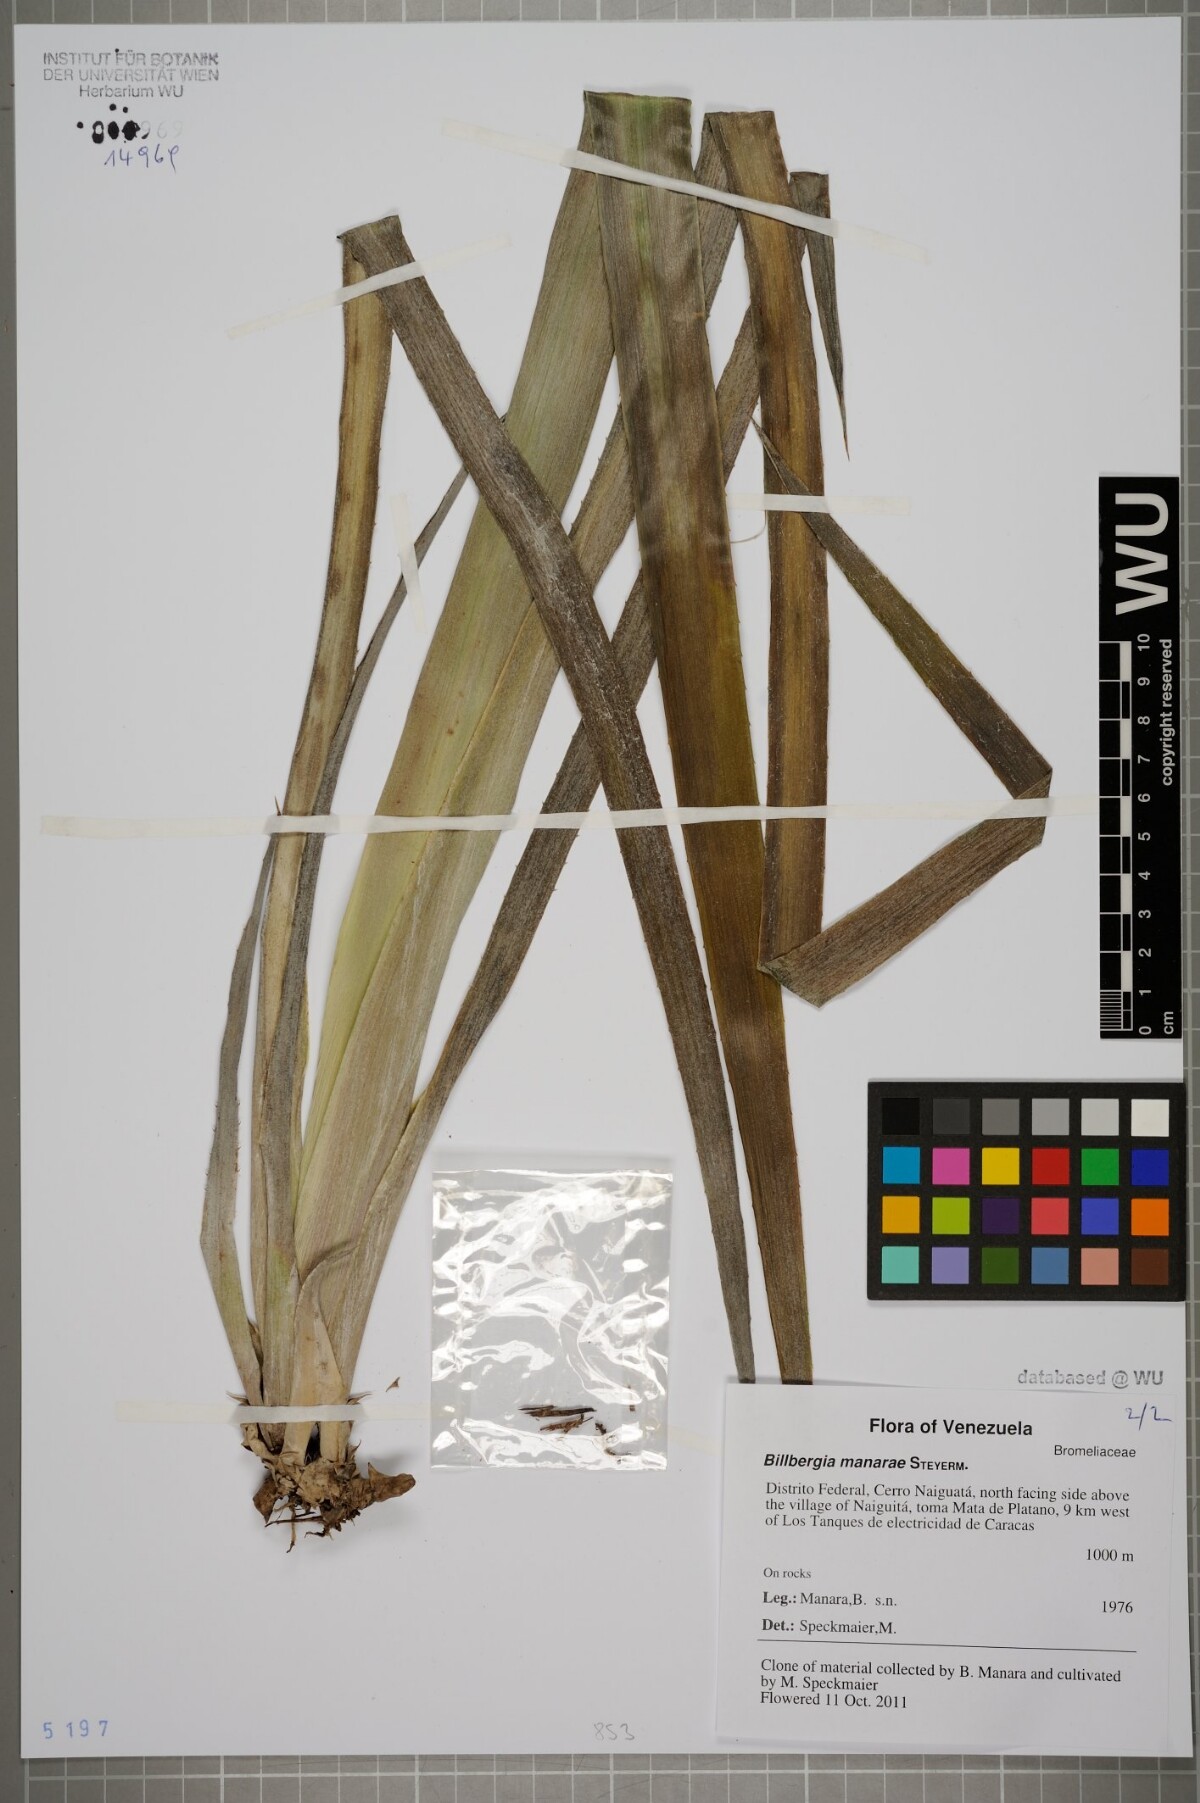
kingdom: Plantae
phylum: Tracheophyta
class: Liliopsida
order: Poales
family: Bromeliaceae
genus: Billbergia
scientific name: Billbergia manarae
